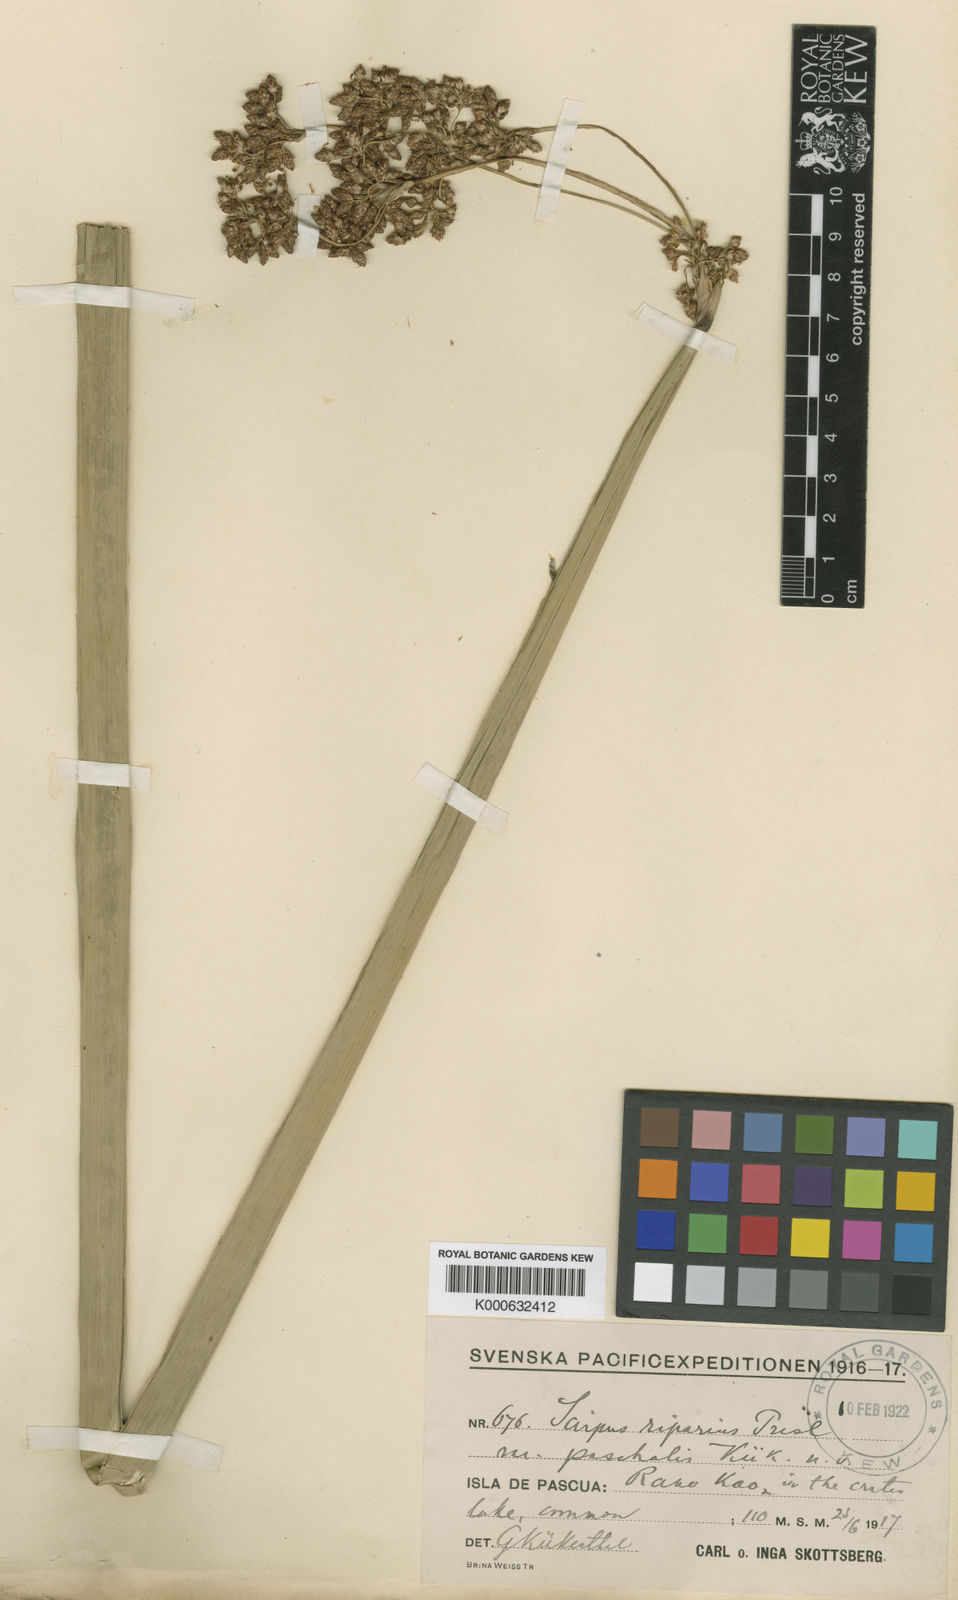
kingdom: Plantae
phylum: Tracheophyta
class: Liliopsida
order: Poales
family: Cyperaceae
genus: Schoenoplectus
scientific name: Schoenoplectus californicus
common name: California bulrush
